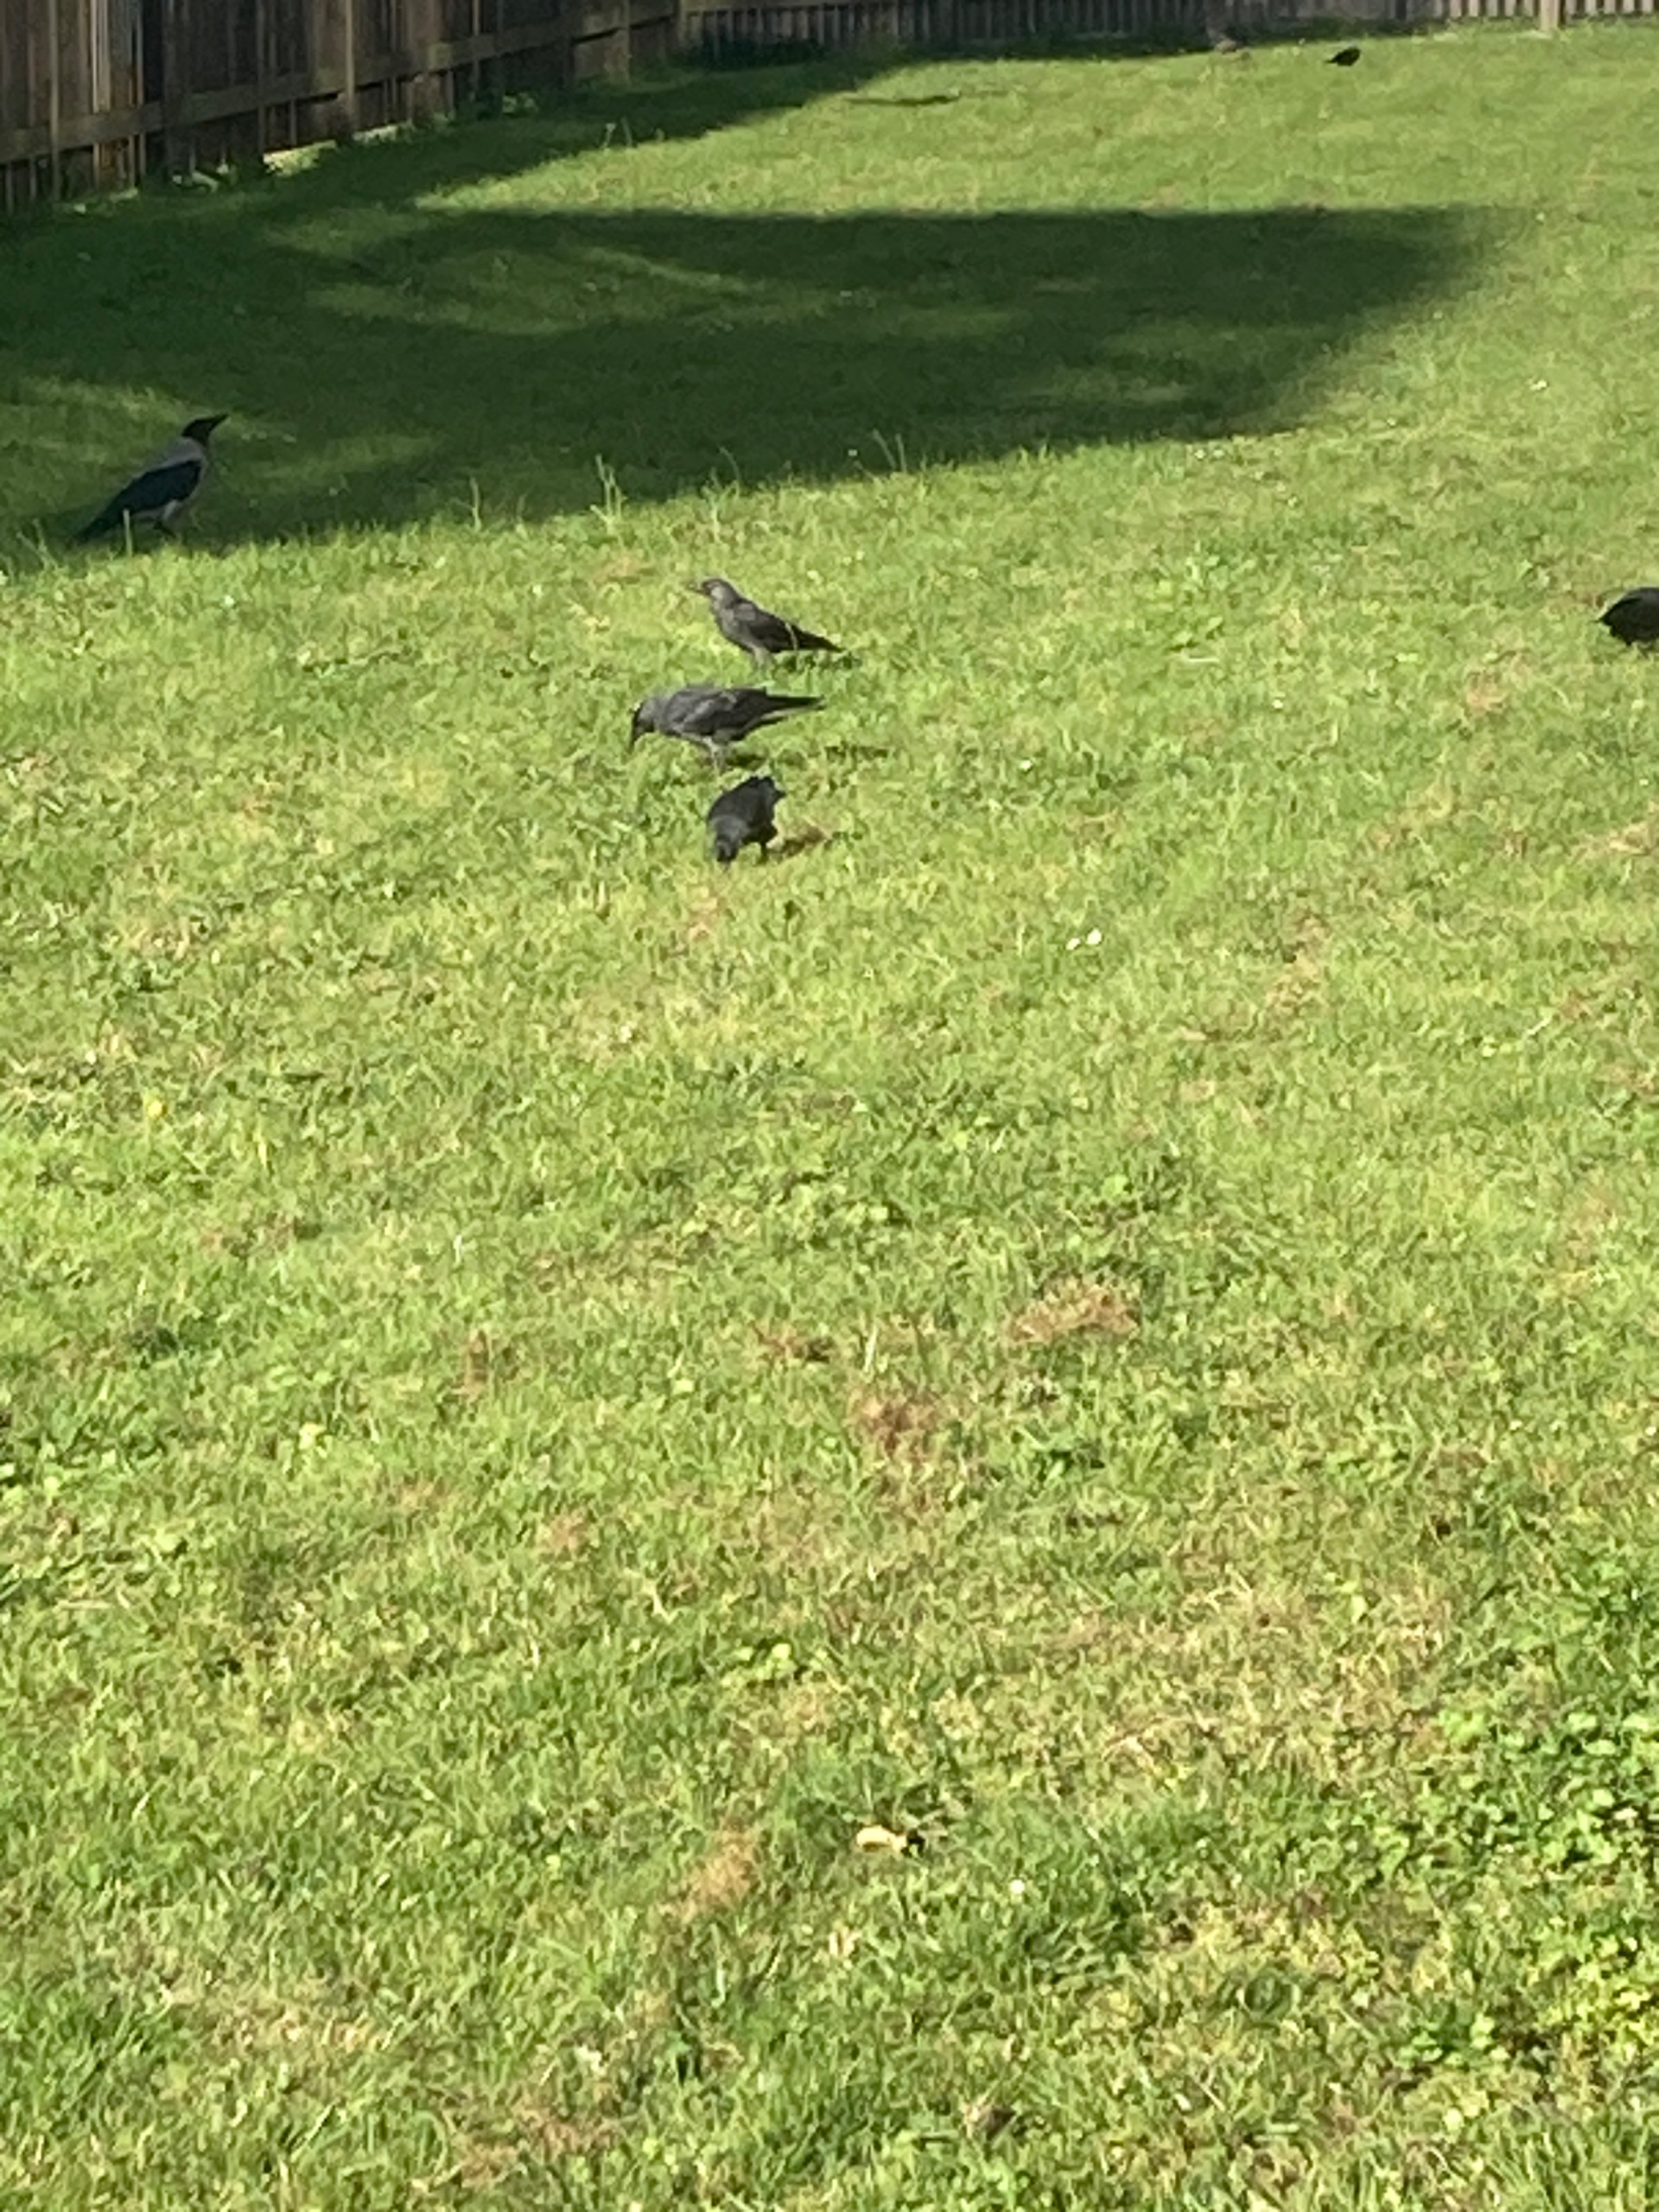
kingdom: Animalia
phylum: Chordata
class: Aves
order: Passeriformes
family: Corvidae
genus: Coloeus
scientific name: Coloeus monedula
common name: Allike
